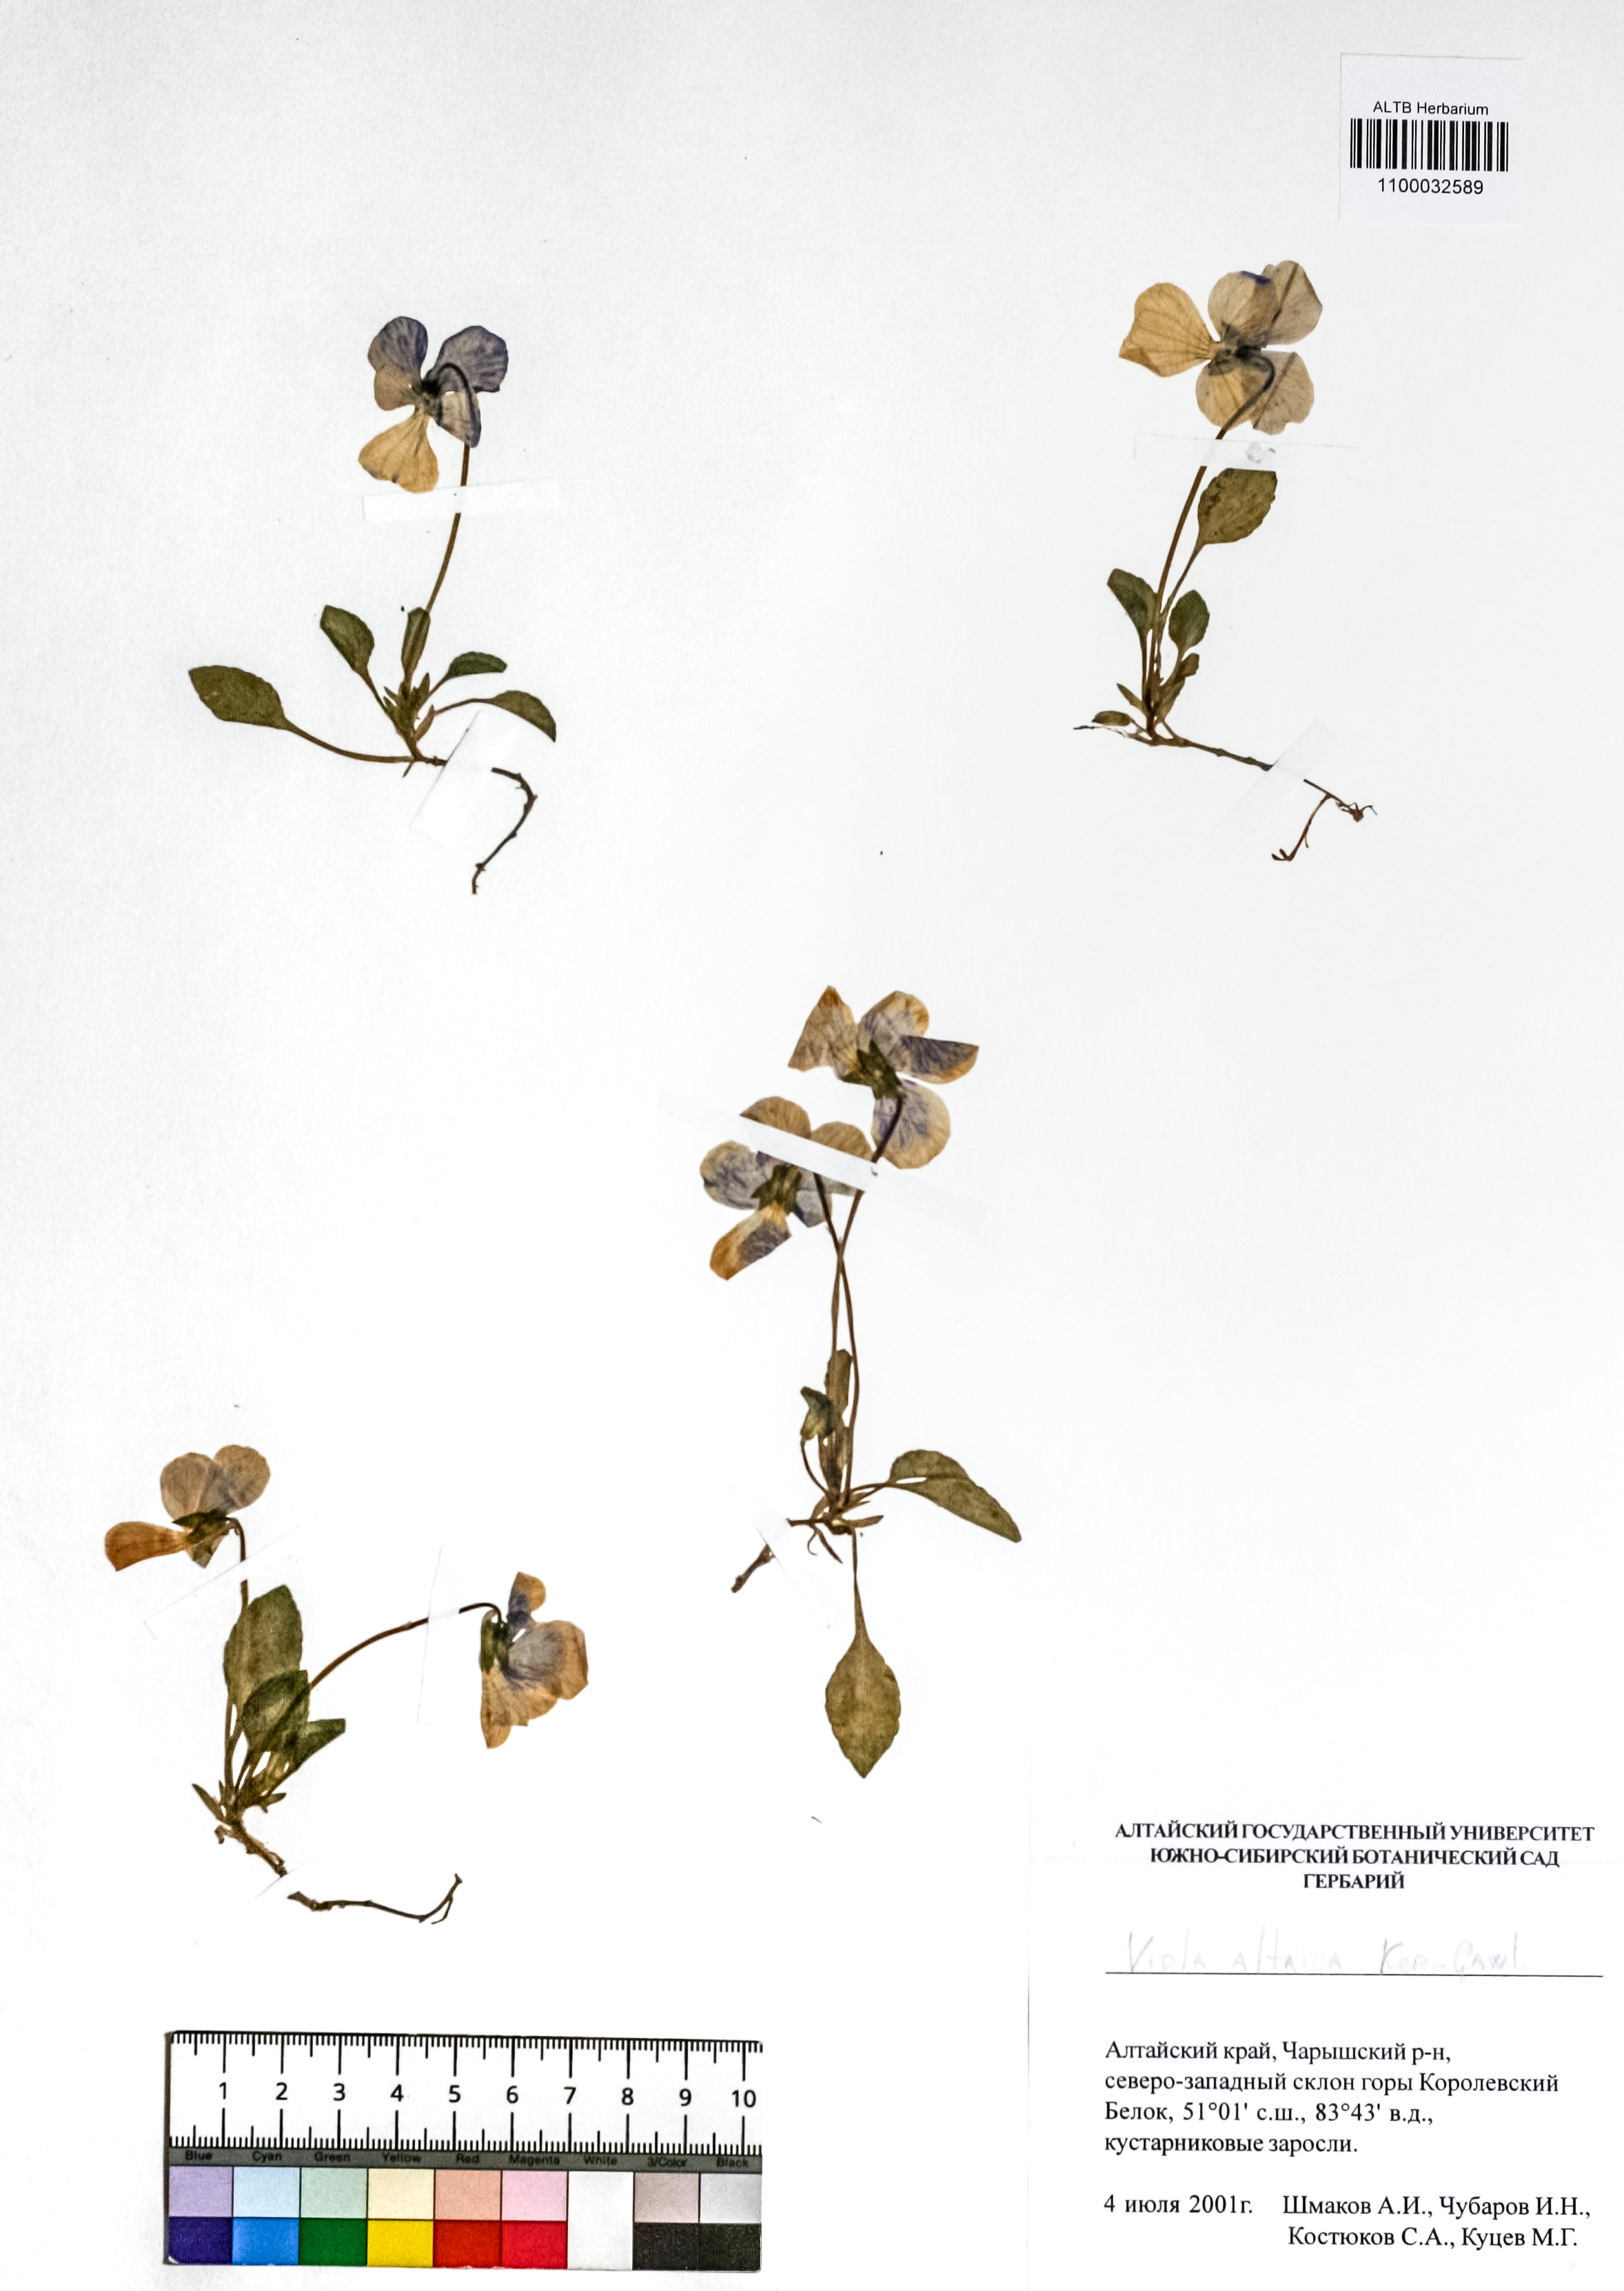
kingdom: Plantae
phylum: Tracheophyta
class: Magnoliopsida
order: Malpighiales
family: Violaceae
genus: Viola
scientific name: Viola altaica
